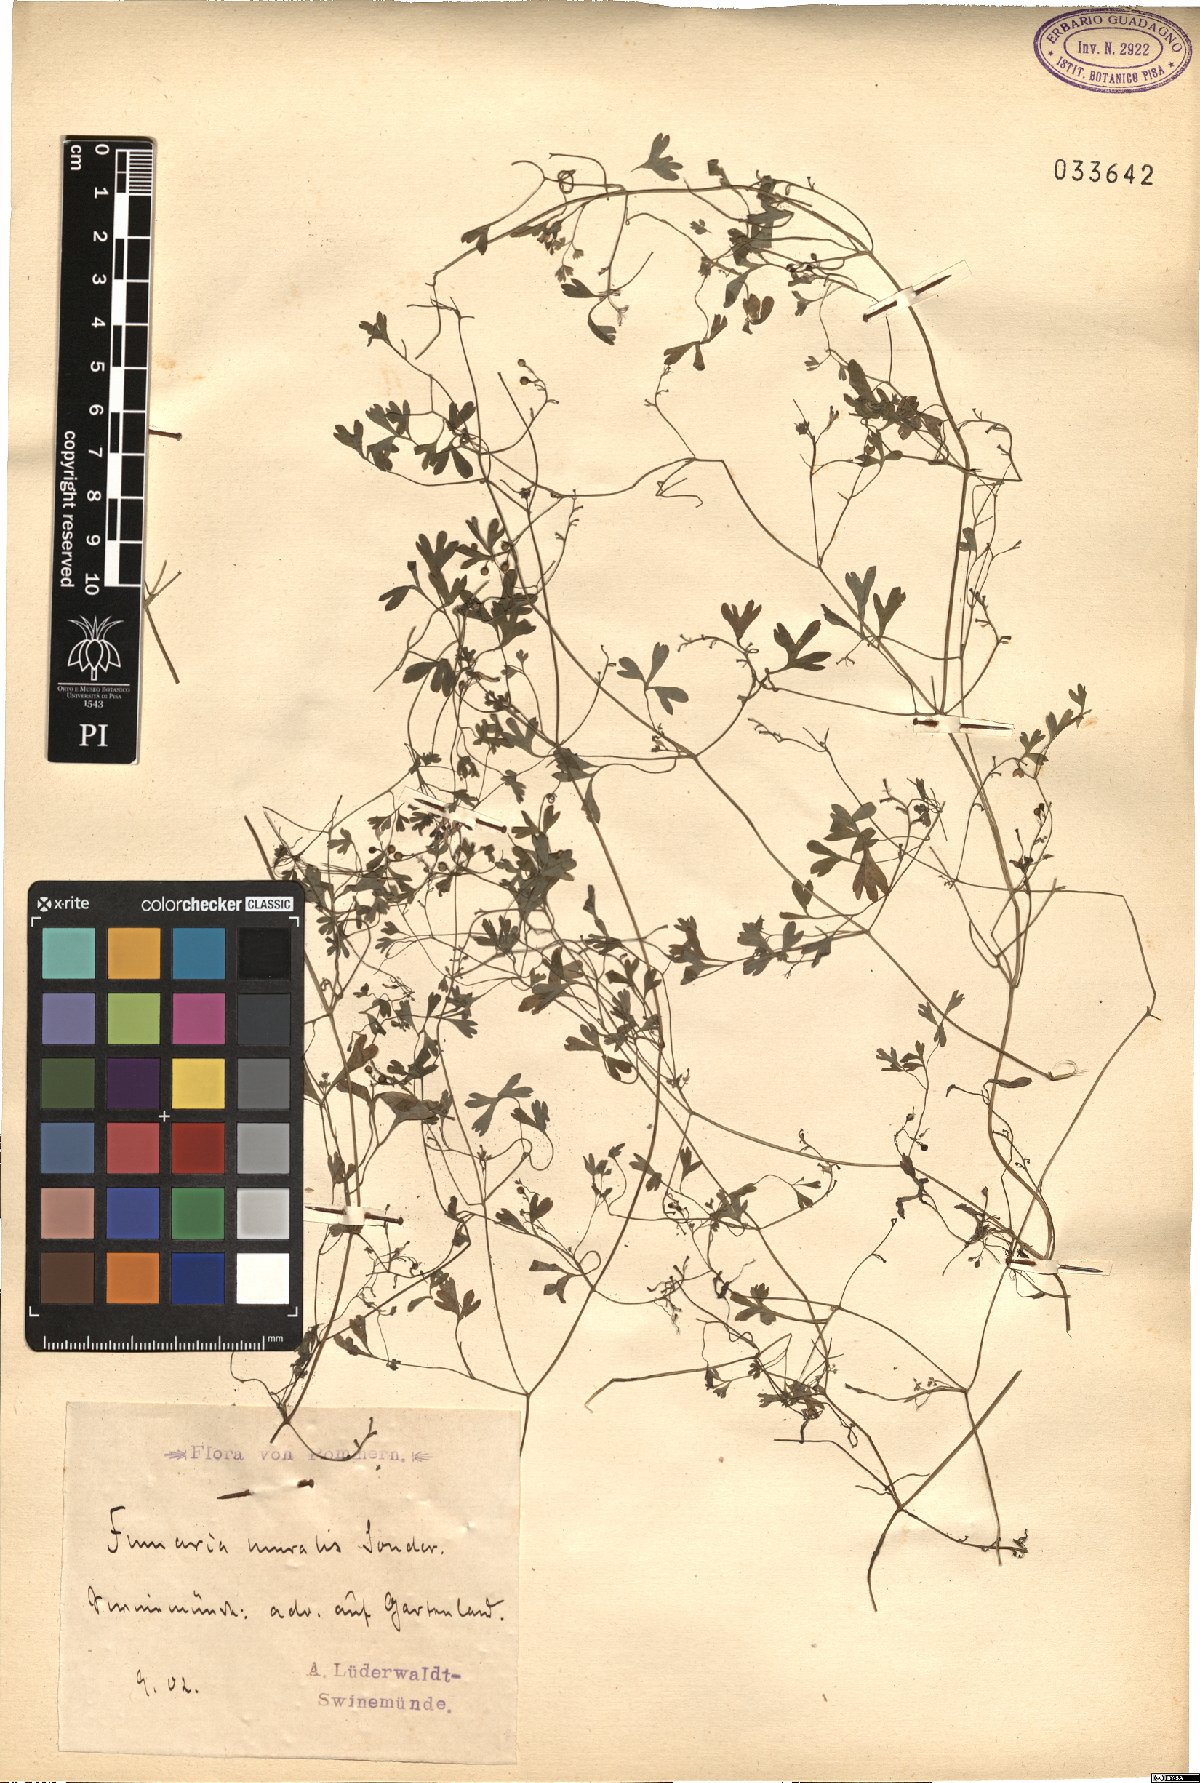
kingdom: Plantae
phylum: Tracheophyta
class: Magnoliopsida
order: Ranunculales
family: Papaveraceae
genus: Fumaria
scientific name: Fumaria muralis
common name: Common ramping-fumitory
